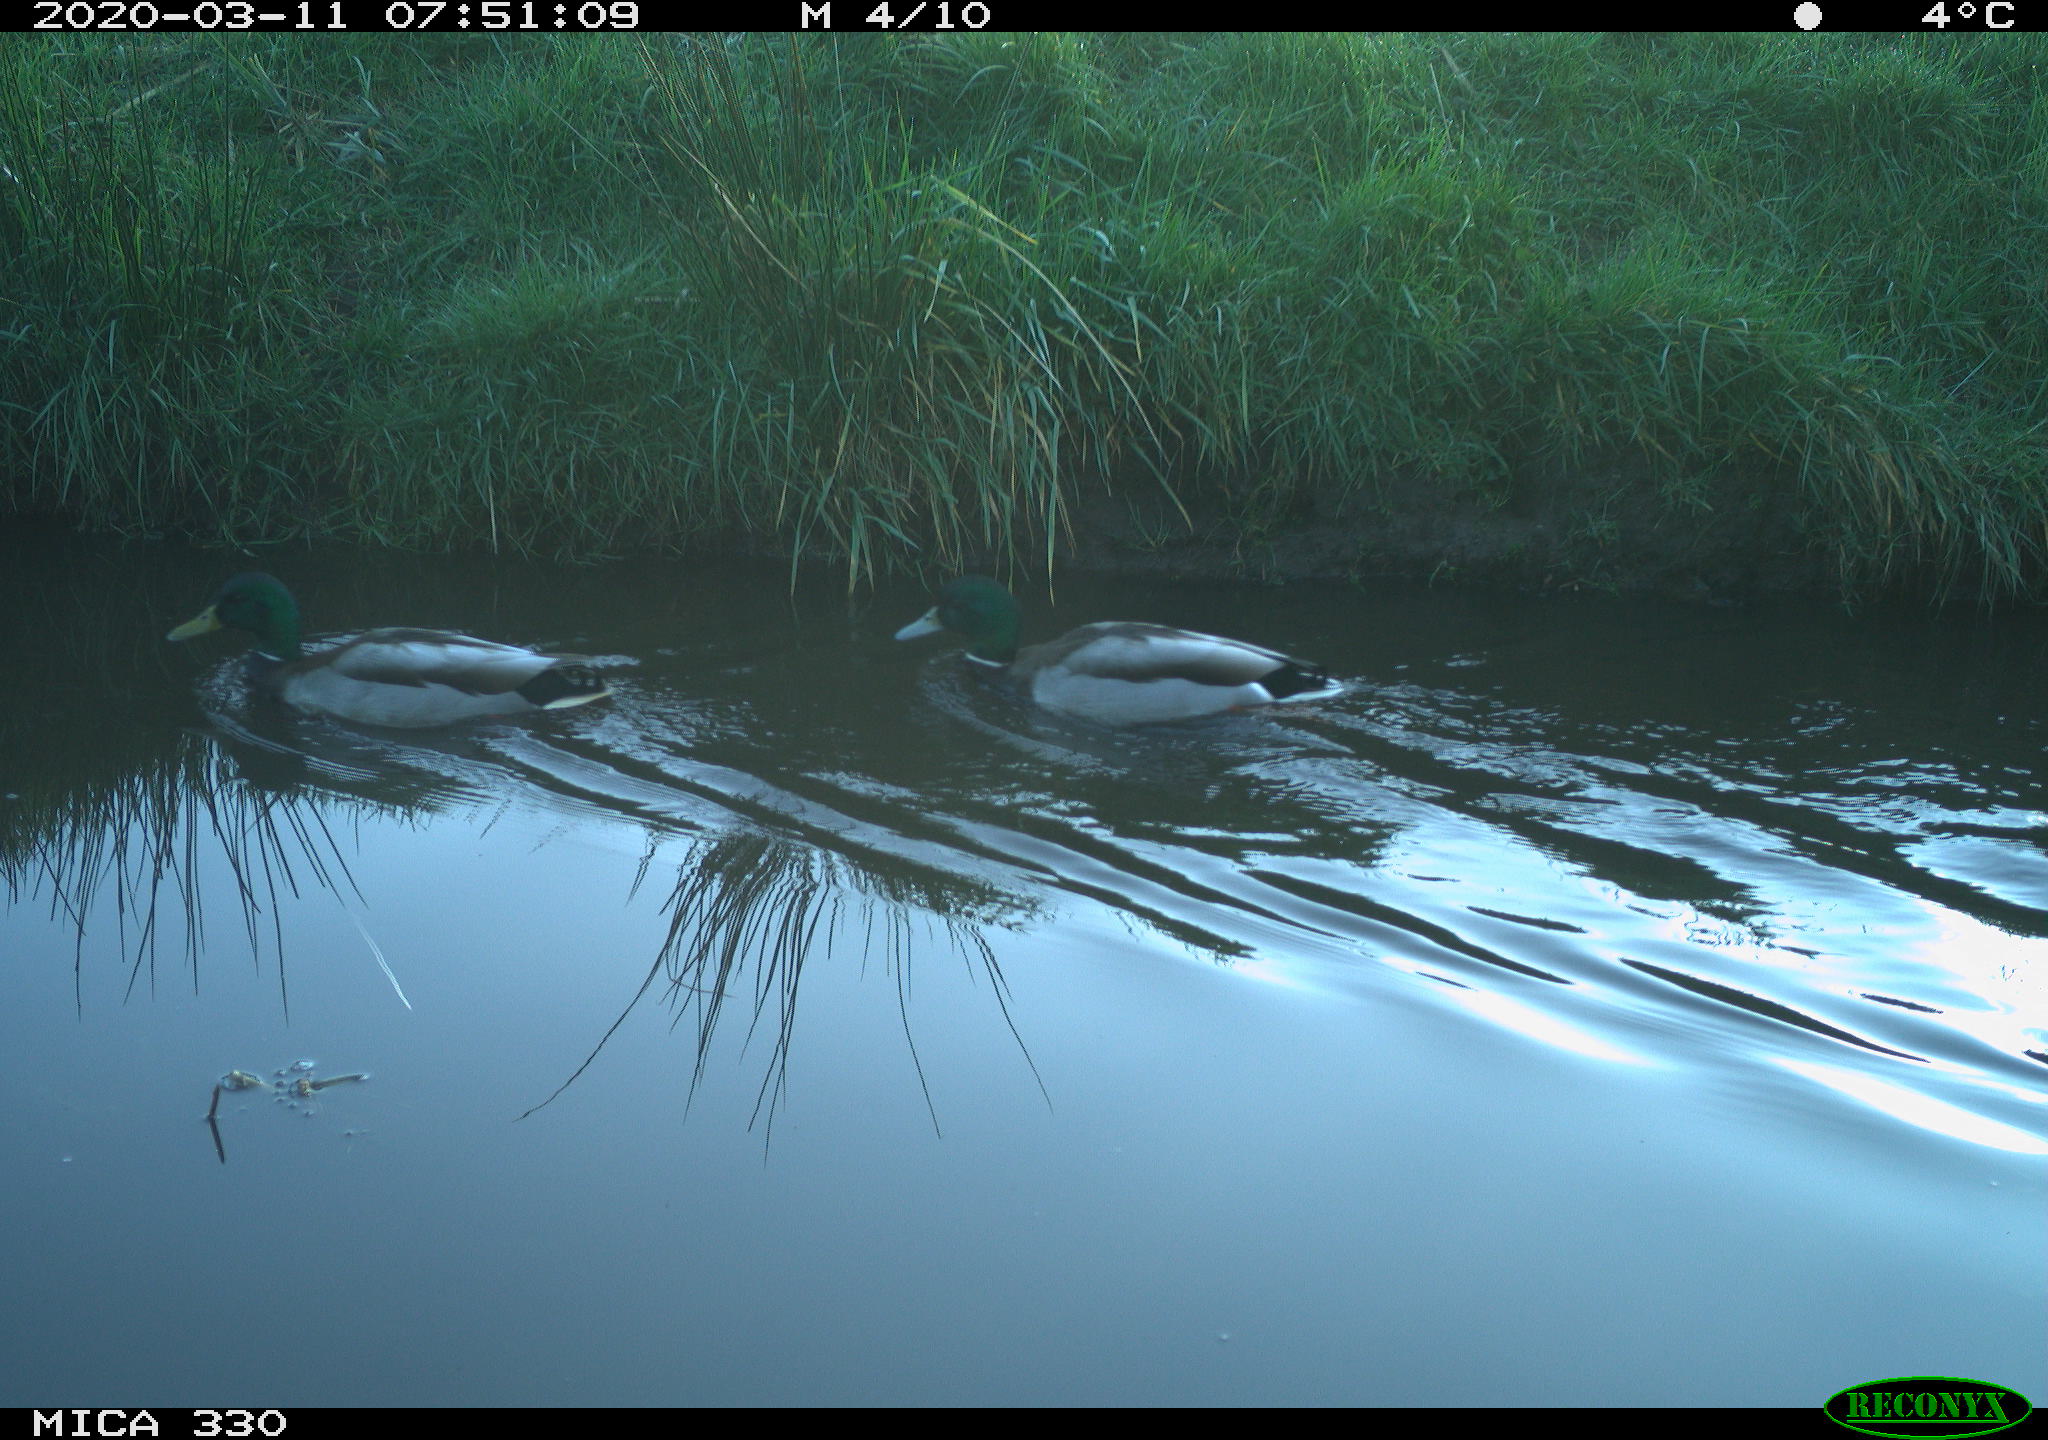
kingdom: Animalia
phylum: Chordata
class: Aves
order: Anseriformes
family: Anatidae
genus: Anas
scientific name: Anas platyrhynchos
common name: Mallard
